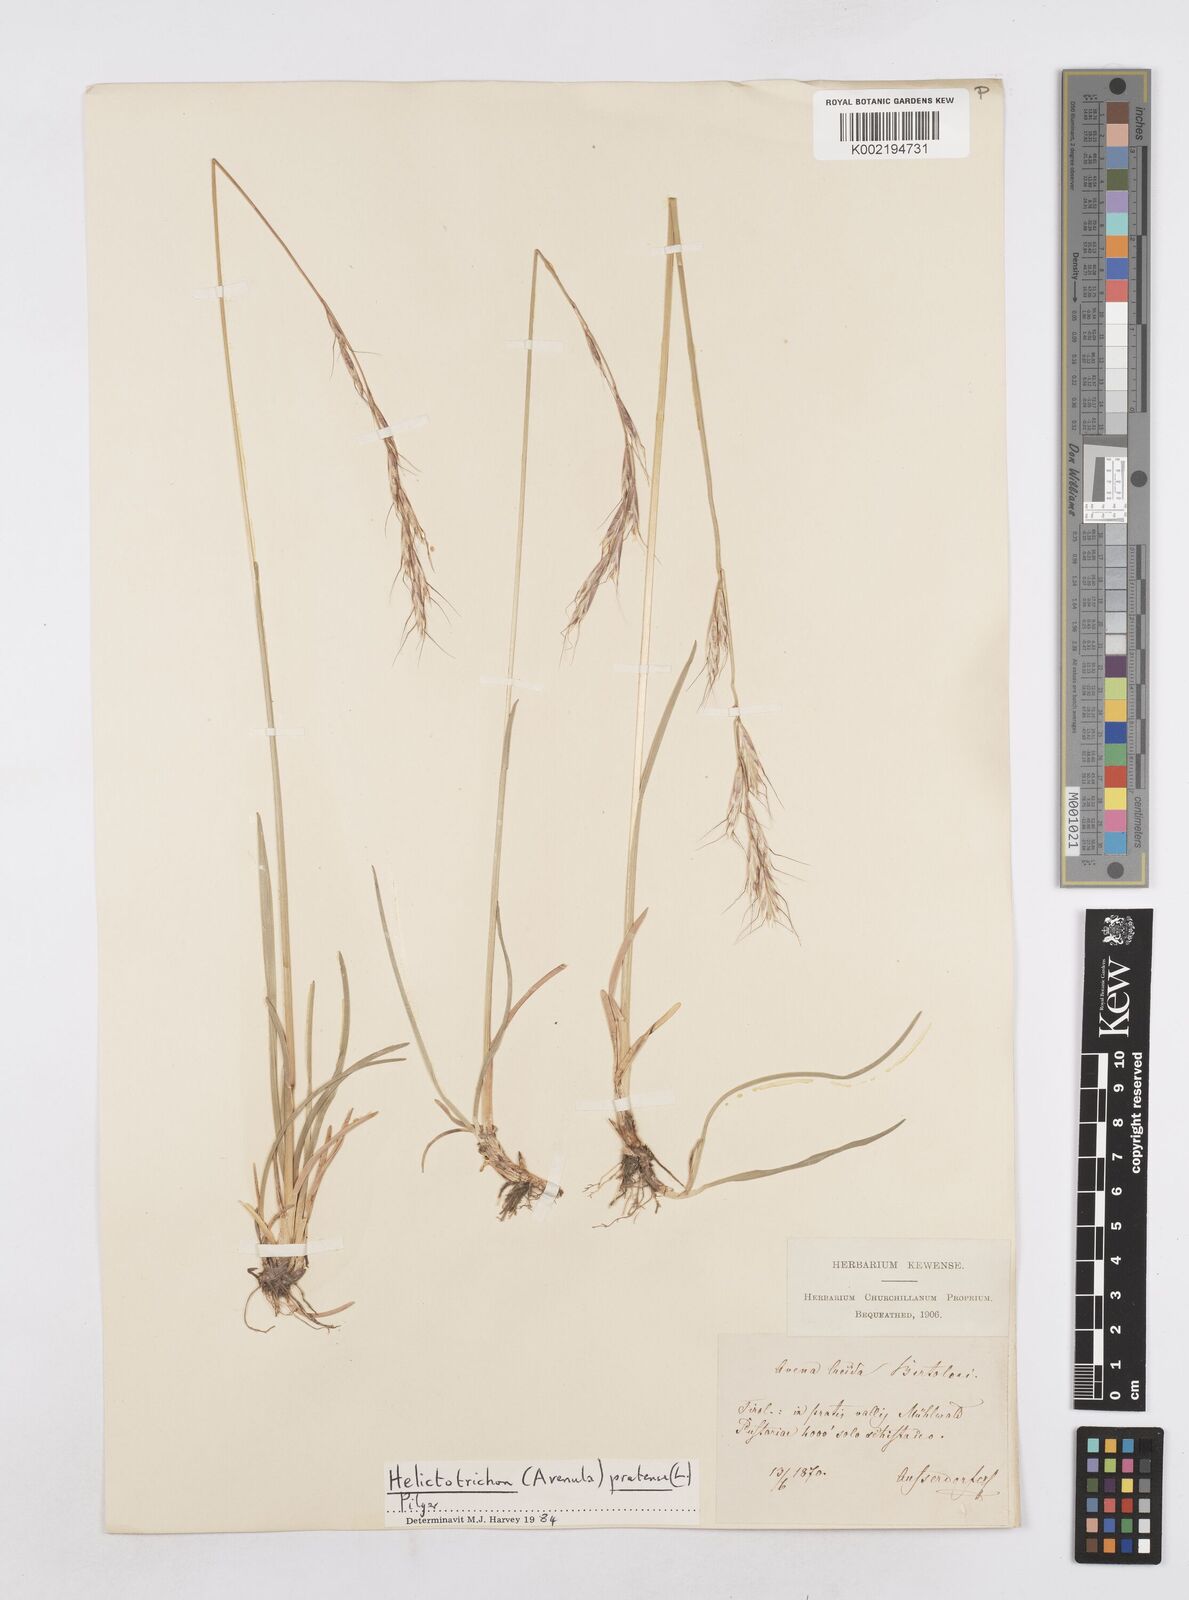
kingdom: Plantae
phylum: Tracheophyta
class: Liliopsida
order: Poales
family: Poaceae
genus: Avenula
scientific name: Avenula pubescens
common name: Downy alpine oatgrass
